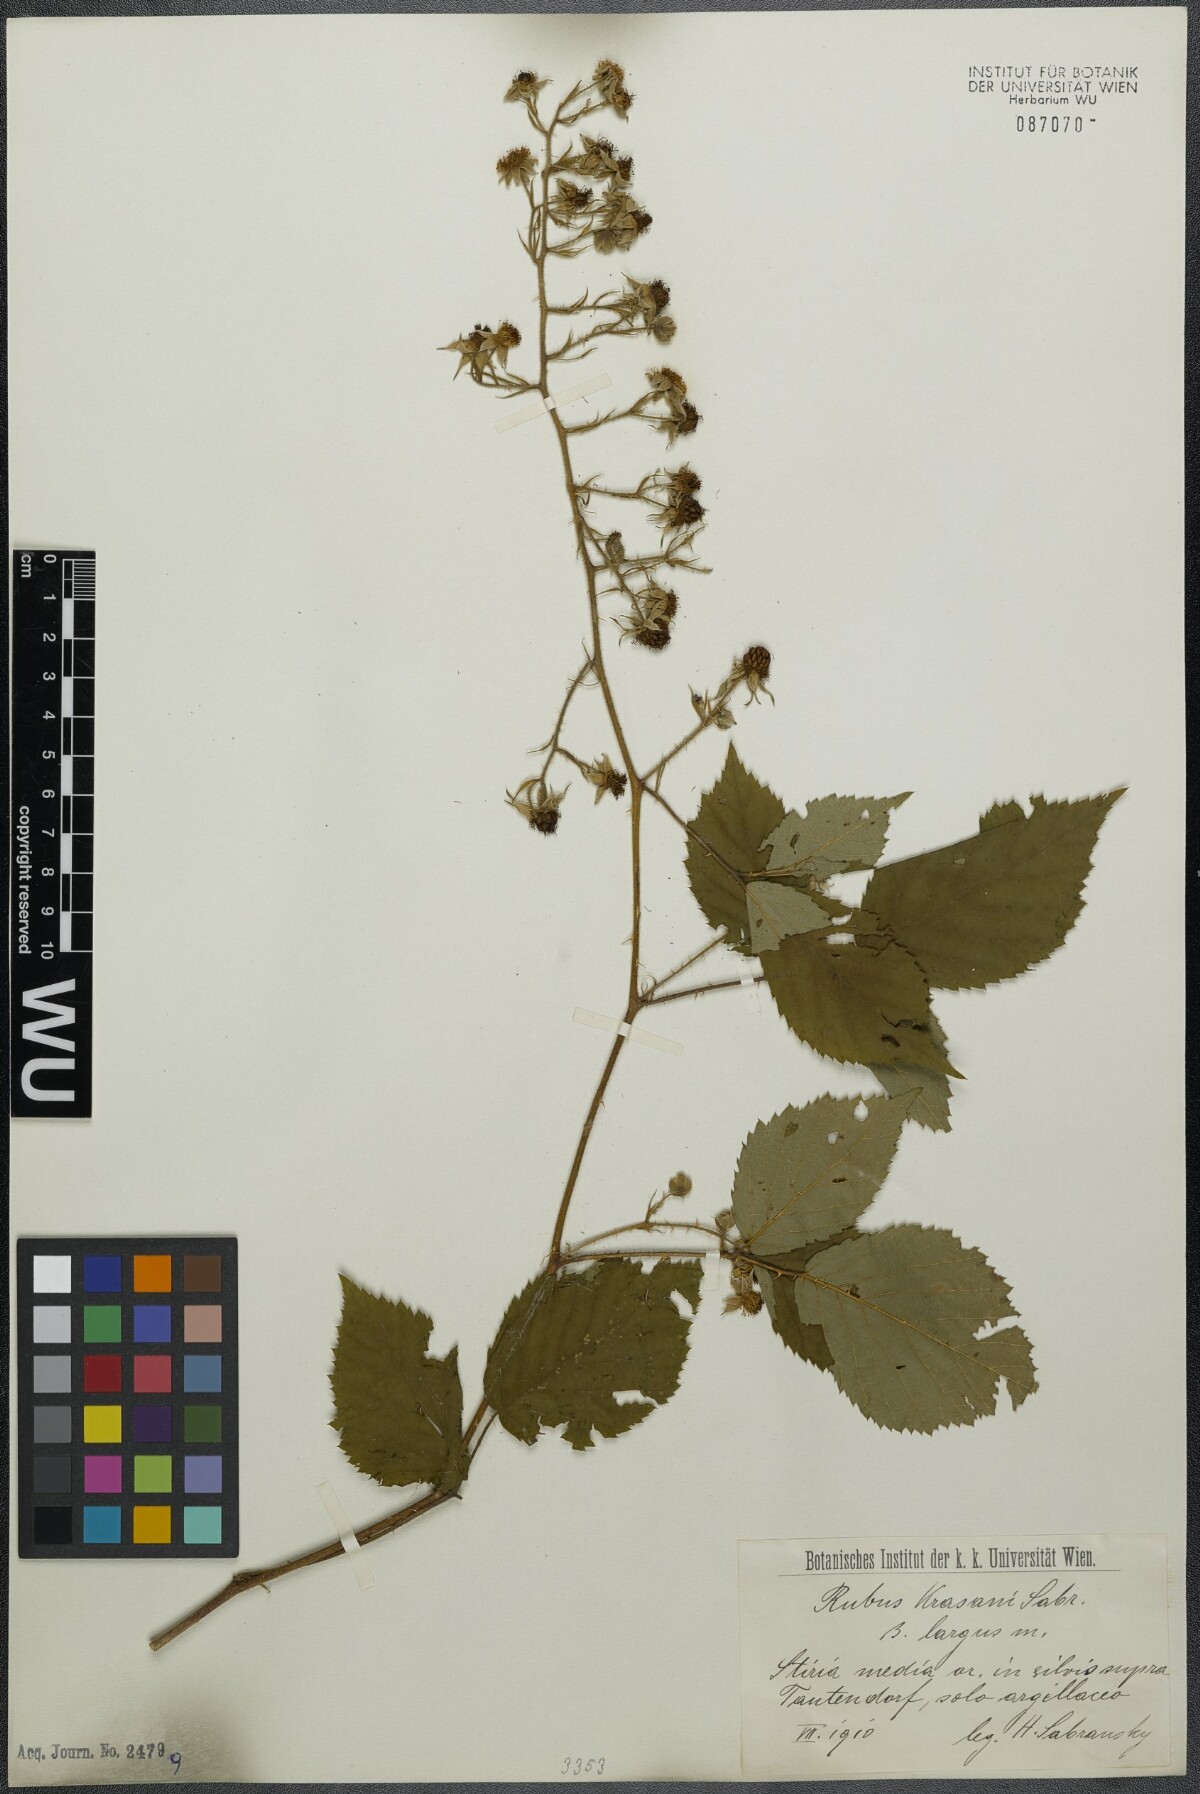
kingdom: Plantae
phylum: Tracheophyta
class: Magnoliopsida
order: Rosales
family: Rosaceae
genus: Rubus
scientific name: Rubus schleicheri
